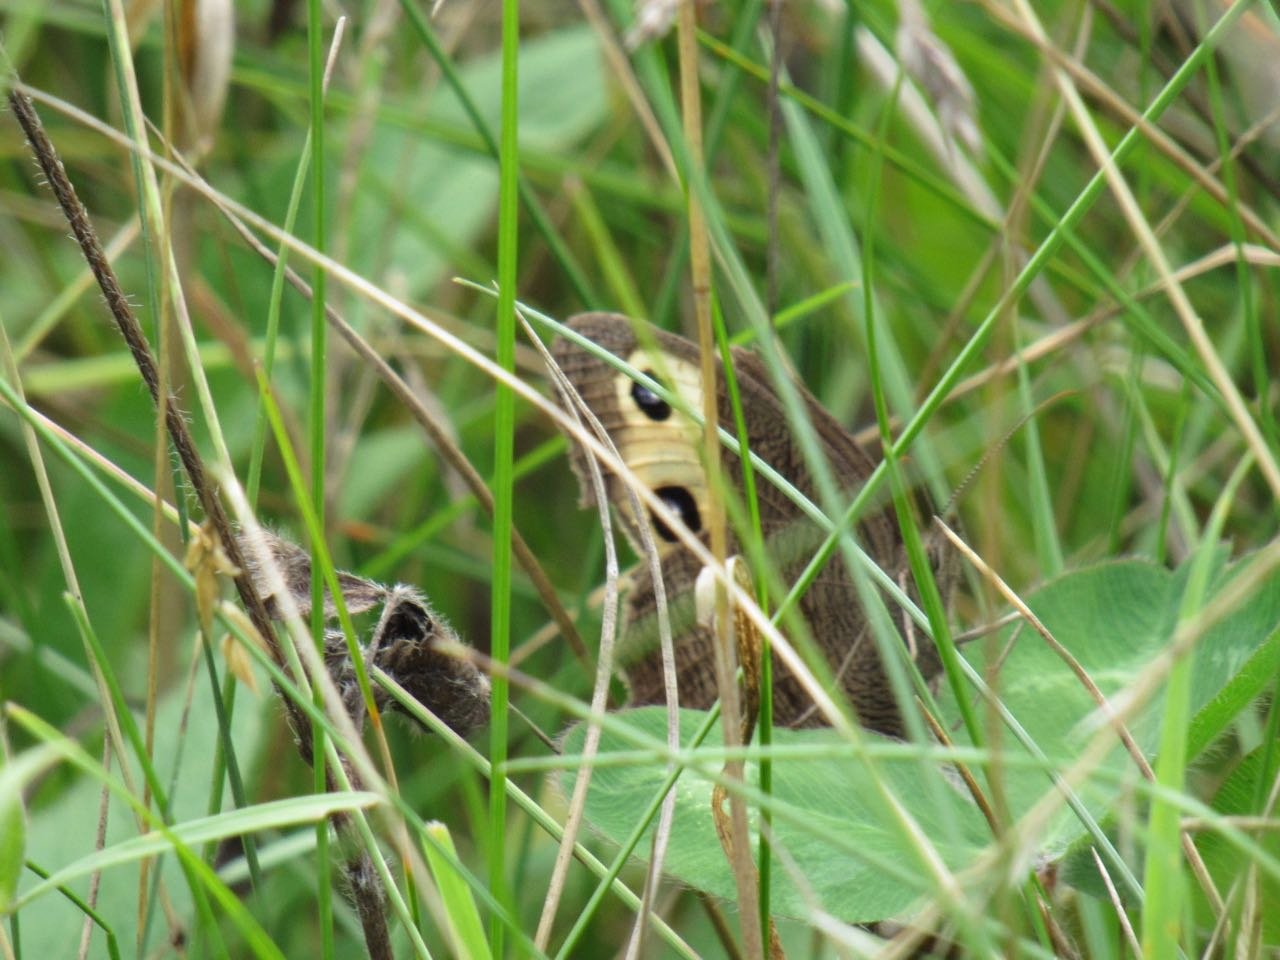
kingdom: Animalia
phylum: Arthropoda
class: Insecta
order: Lepidoptera
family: Nymphalidae
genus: Cercyonis
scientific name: Cercyonis pegala
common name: Common Wood-Nymph
